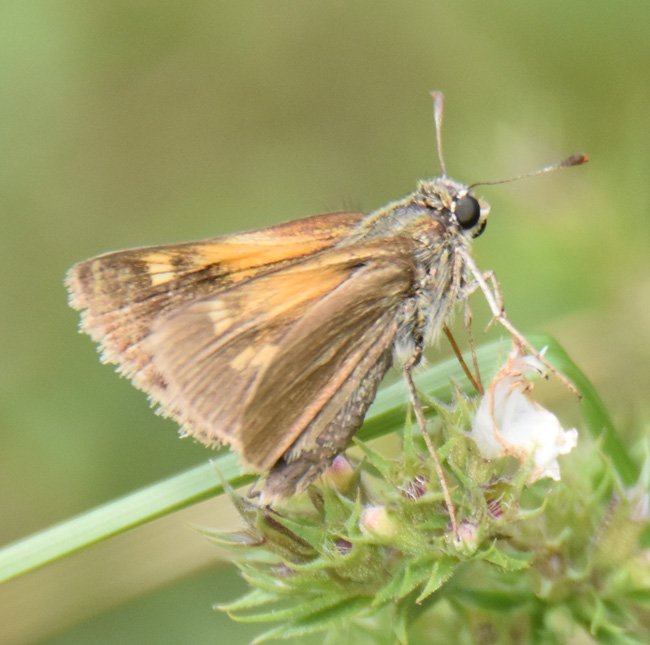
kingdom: Animalia
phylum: Arthropoda
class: Insecta
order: Lepidoptera
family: Hesperiidae
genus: Polites
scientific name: Polites themistocles
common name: Tawny-edged Skipper
